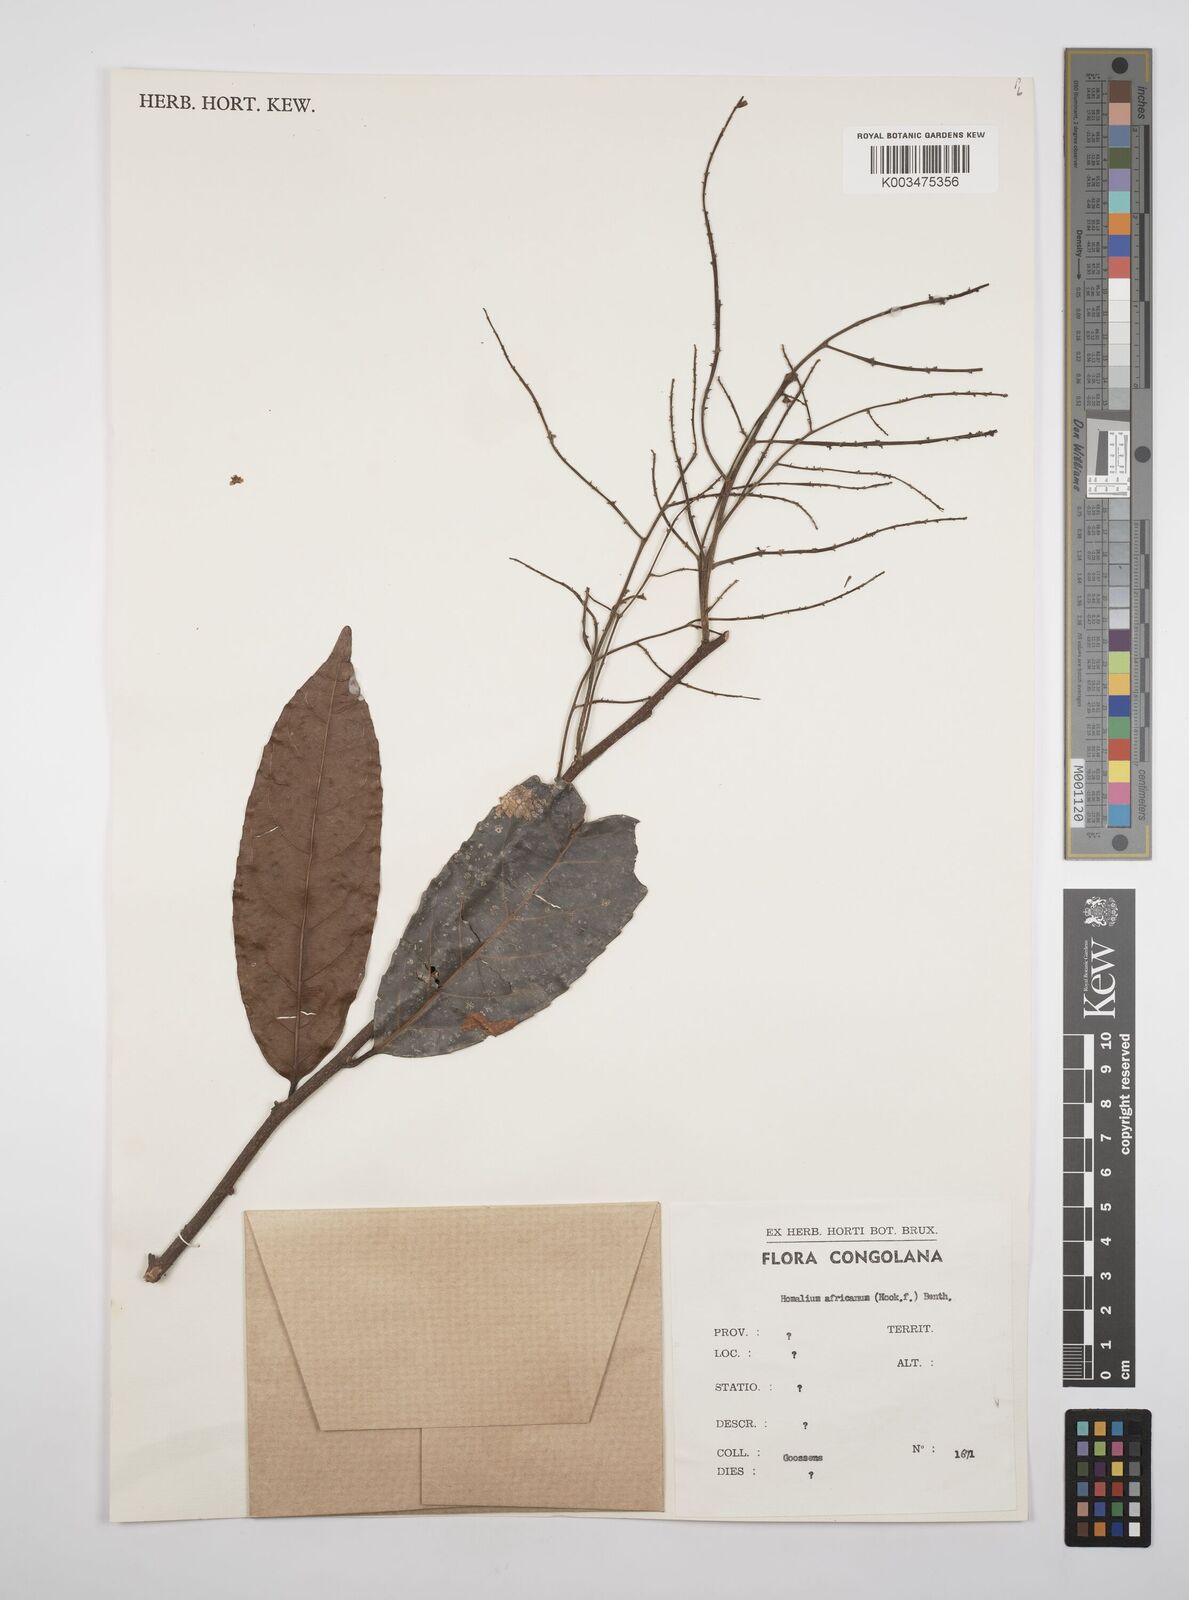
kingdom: Plantae
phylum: Tracheophyta
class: Magnoliopsida
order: Malpighiales
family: Salicaceae
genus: Homalium
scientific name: Homalium africanum
